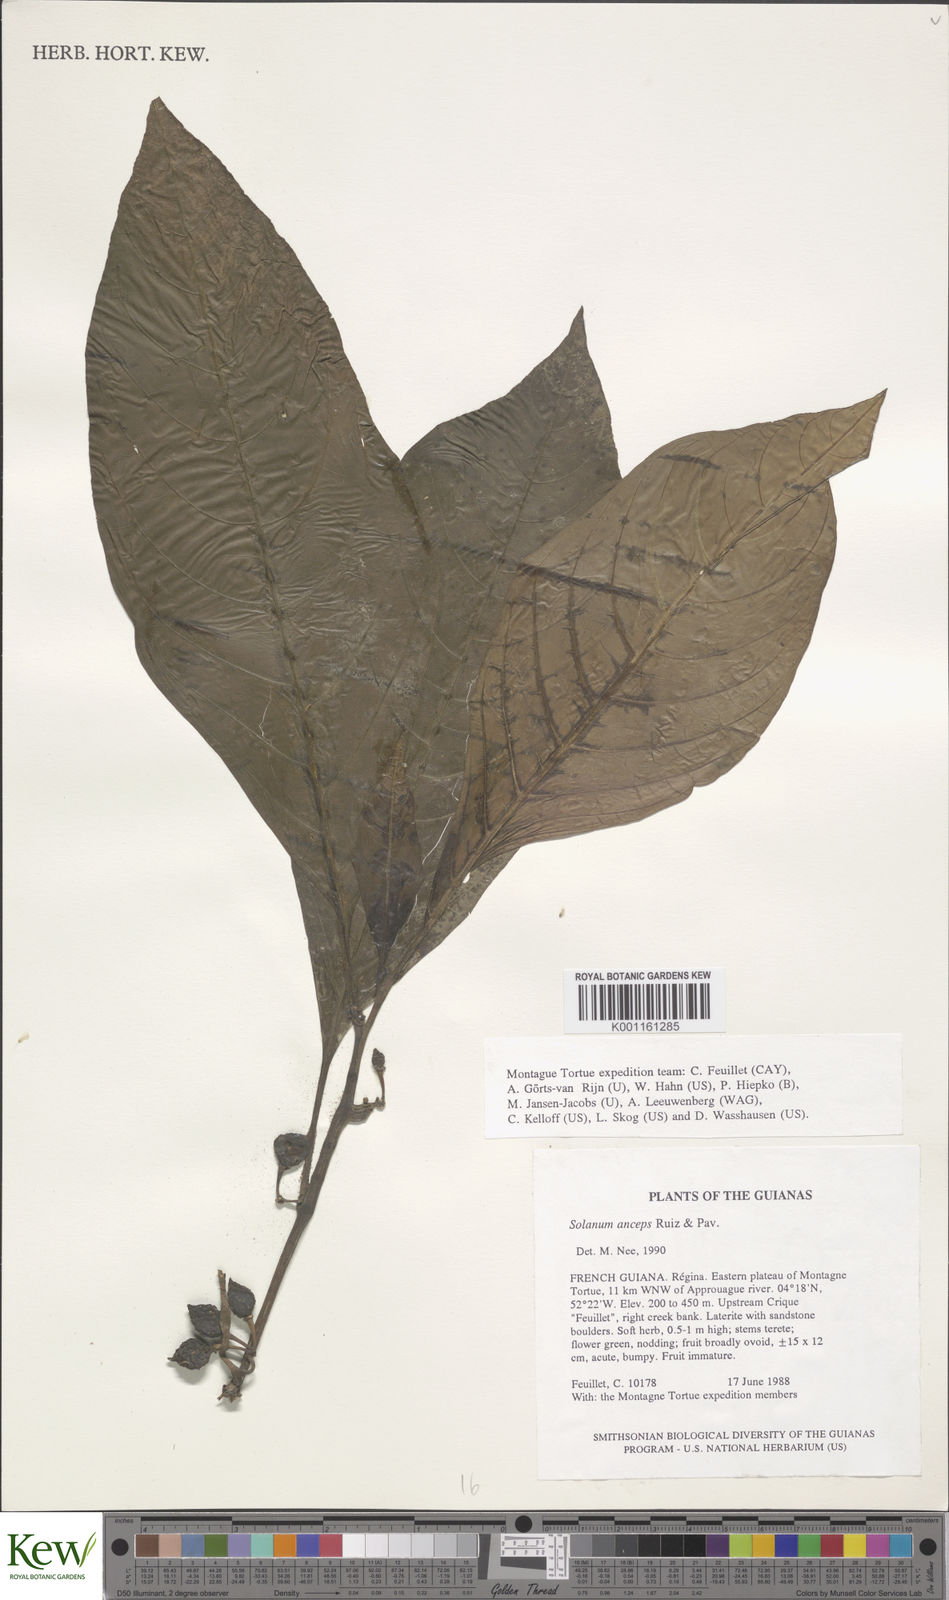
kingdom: Plantae
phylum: Tracheophyta
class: Magnoliopsida
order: Solanales
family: Solanaceae
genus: Solanum
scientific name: Solanum anceps
